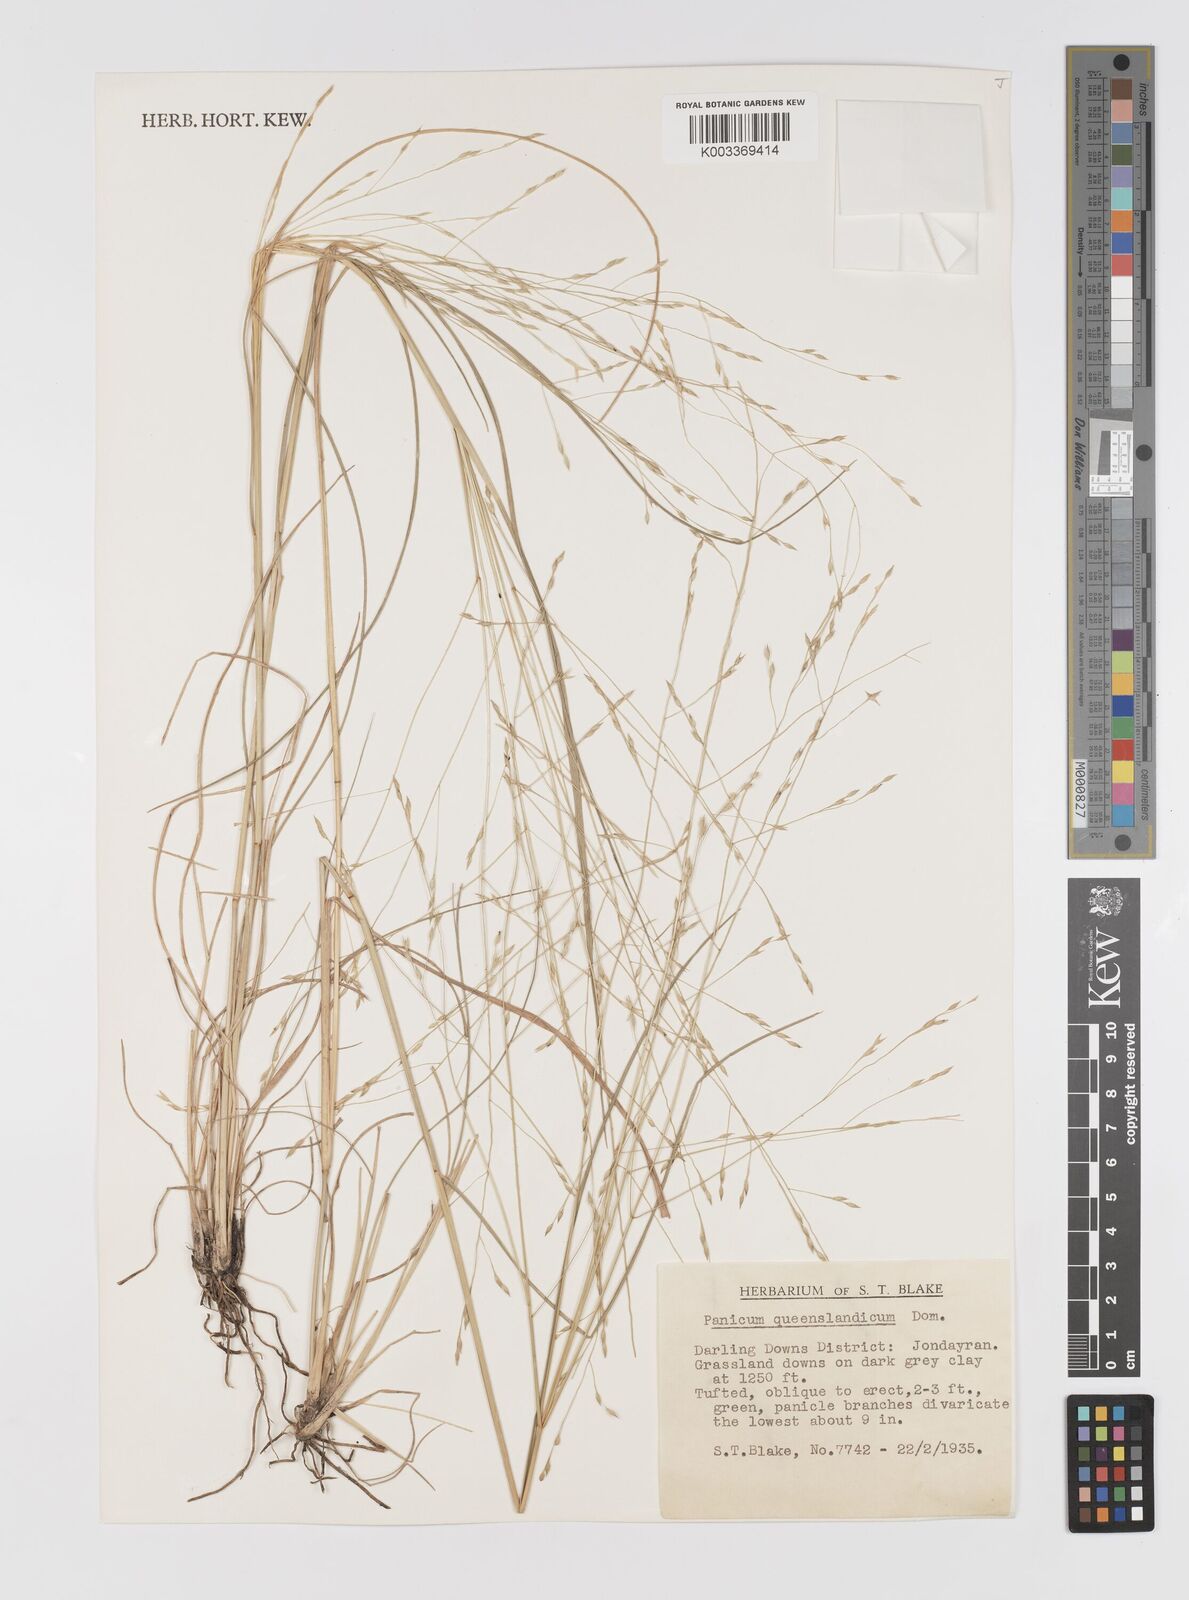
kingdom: Plantae
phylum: Tracheophyta
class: Liliopsida
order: Poales
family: Poaceae
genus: Panicum
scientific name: Panicum queenslandicum
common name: Yabila grass
